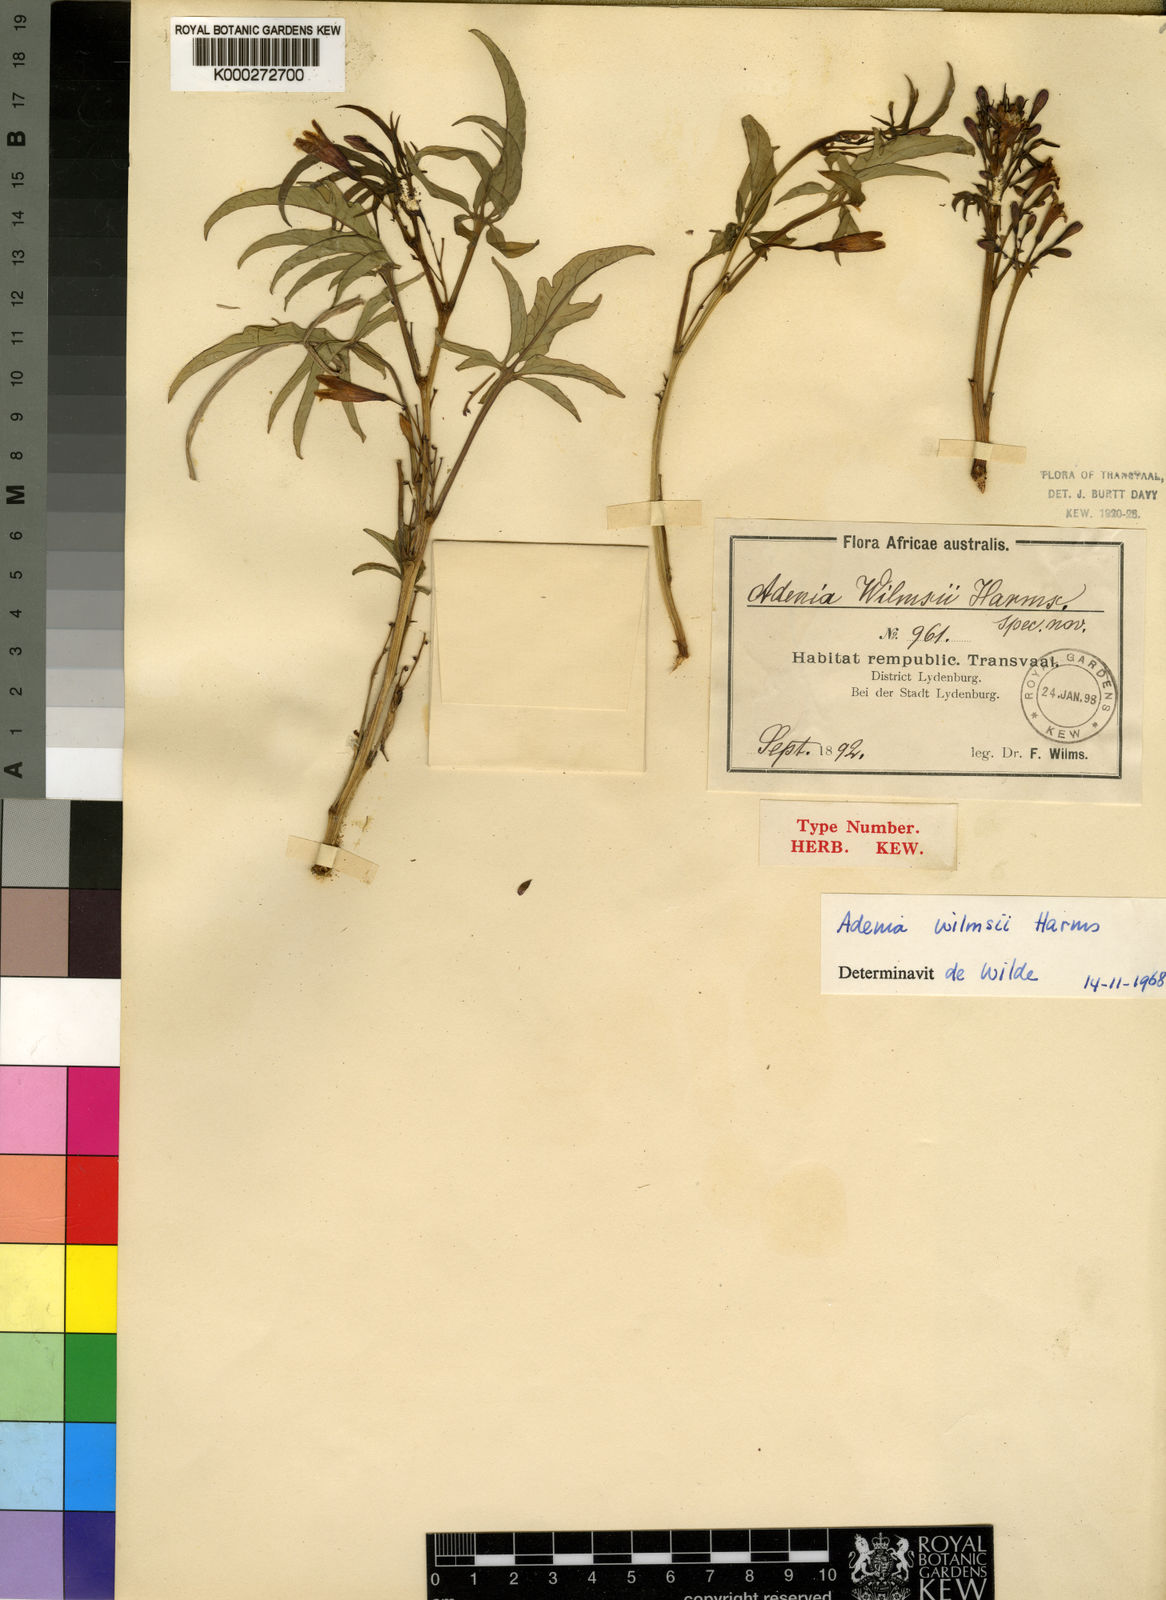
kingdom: Plantae
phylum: Tracheophyta
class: Magnoliopsida
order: Malpighiales
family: Passifloraceae
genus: Adenia
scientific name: Adenia wilmsii
